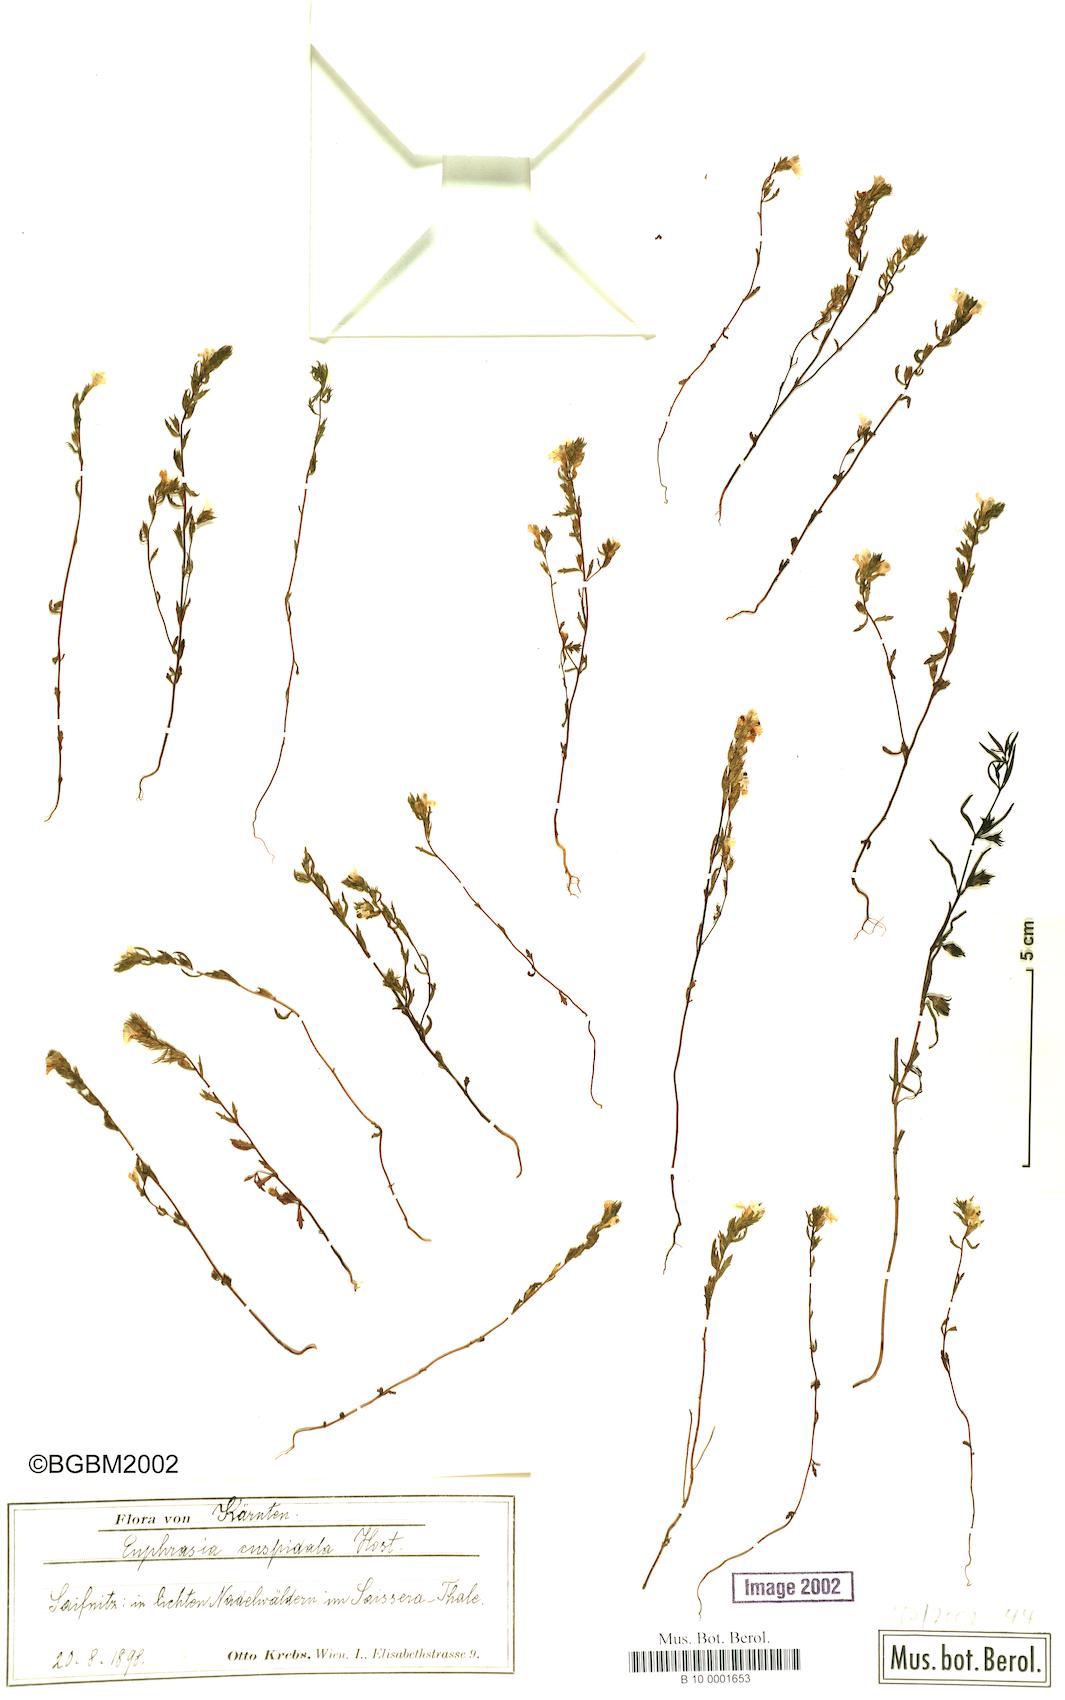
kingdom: Plantae
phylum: Tracheophyta
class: Magnoliopsida
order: Lamiales
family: Orobanchaceae
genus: Euphrasia
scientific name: Euphrasia cuspidata
